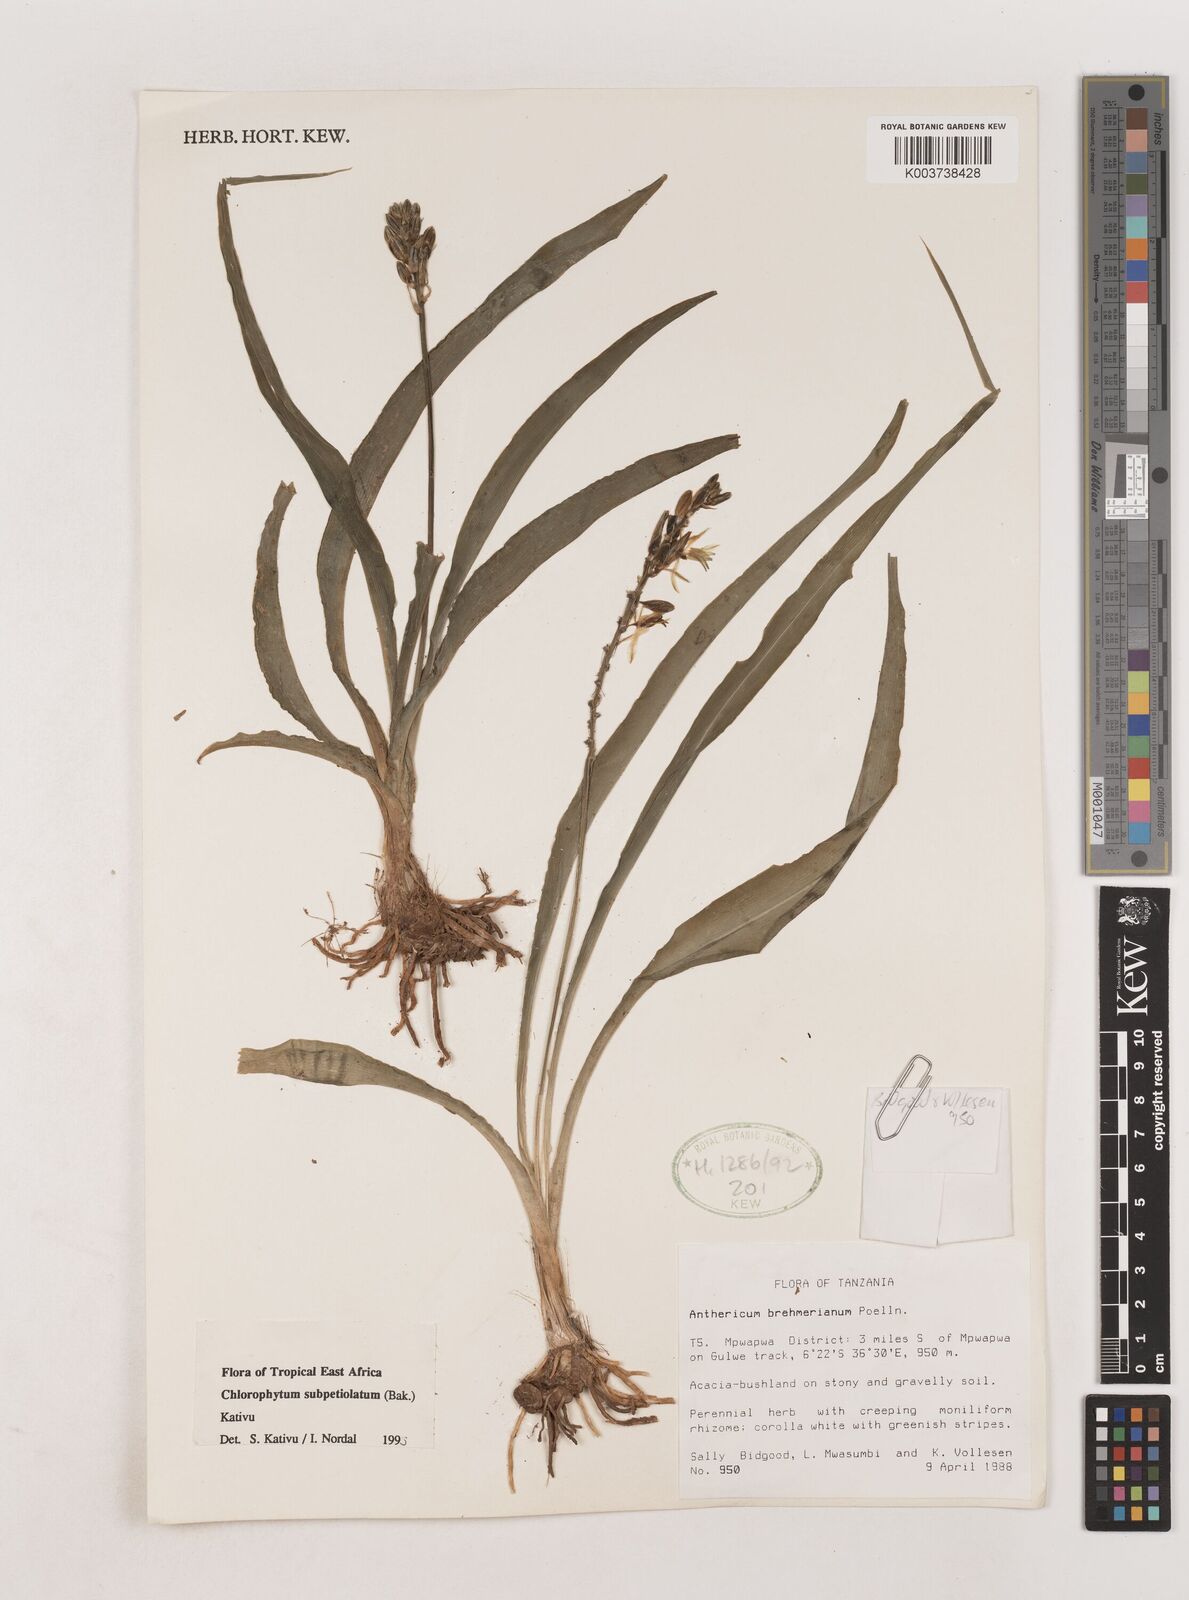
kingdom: Plantae
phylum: Tracheophyta
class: Liliopsida
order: Asparagales
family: Asparagaceae
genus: Chlorophytum
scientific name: Chlorophytum subpetiolatum
